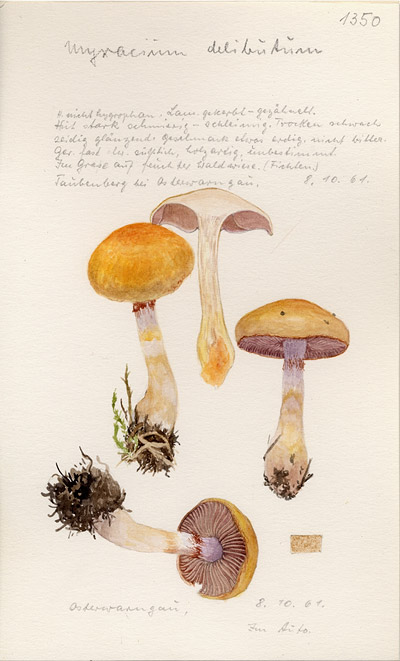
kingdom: Fungi
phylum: Basidiomycota
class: Agaricomycetes
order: Agaricales
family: Cortinariaceae
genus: Cortinarius
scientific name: Cortinarius delibutus
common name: Yellow webcap
